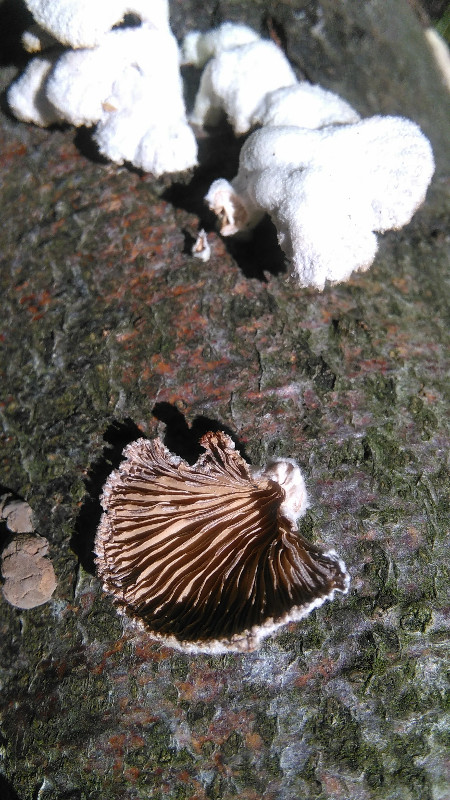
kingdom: Fungi
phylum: Basidiomycota
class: Agaricomycetes
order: Agaricales
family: Schizophyllaceae
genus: Schizophyllum
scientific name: Schizophyllum commune
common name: kløvblad
